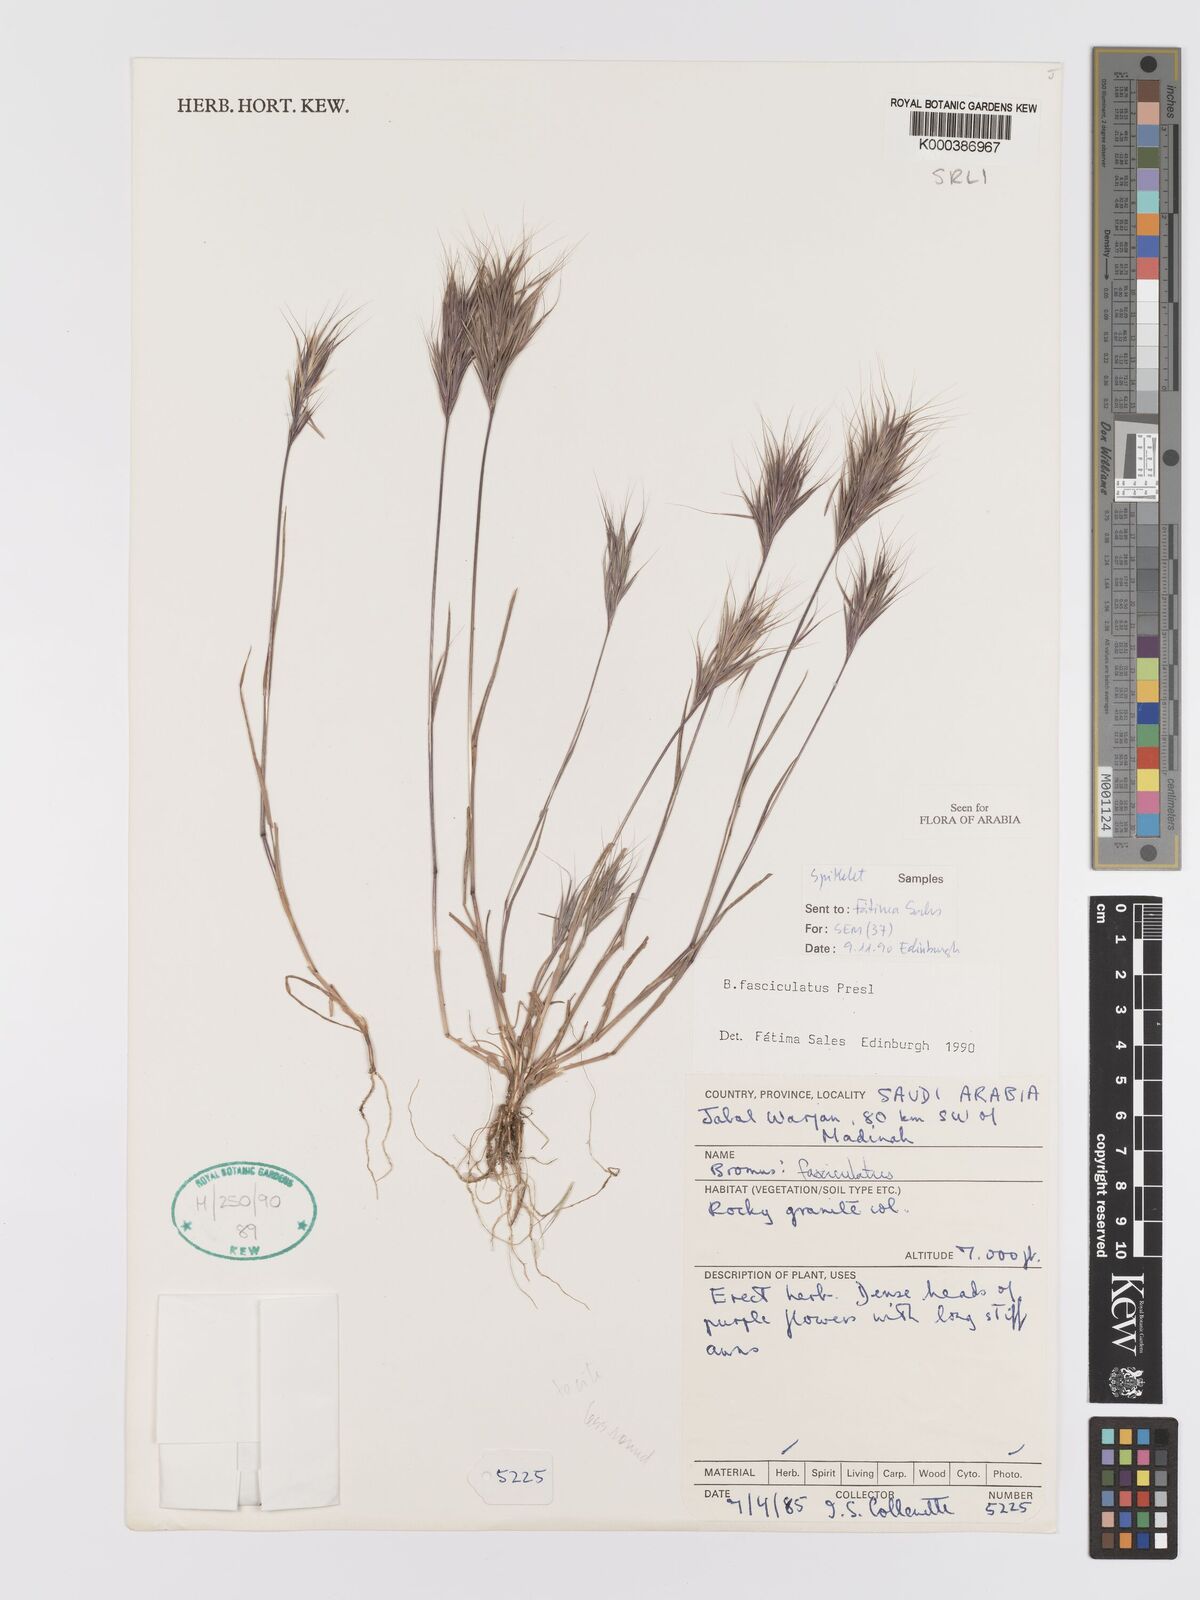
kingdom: Plantae
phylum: Tracheophyta
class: Liliopsida
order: Poales
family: Poaceae
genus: Bromus
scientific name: Bromus fasciculatus
